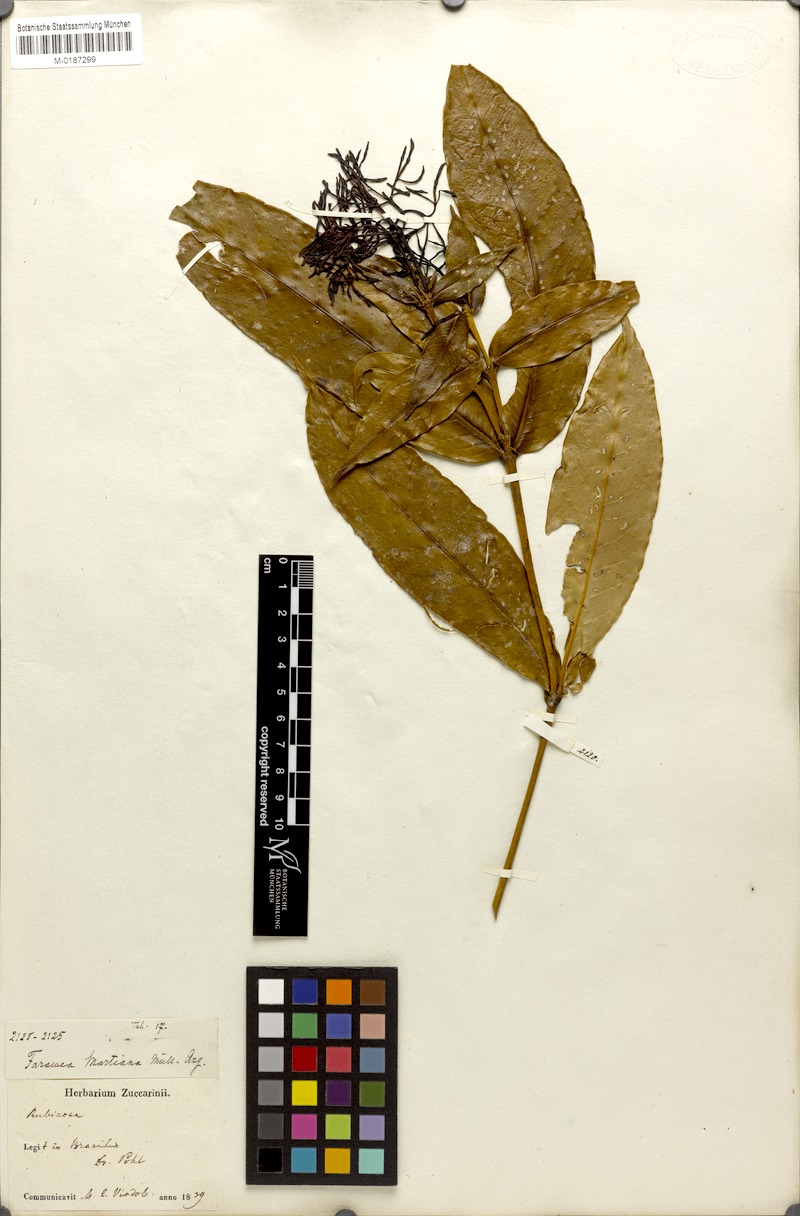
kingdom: Plantae
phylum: Tracheophyta
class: Magnoliopsida
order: Gentianales
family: Rubiaceae
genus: Faramea
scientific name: Faramea martiana
